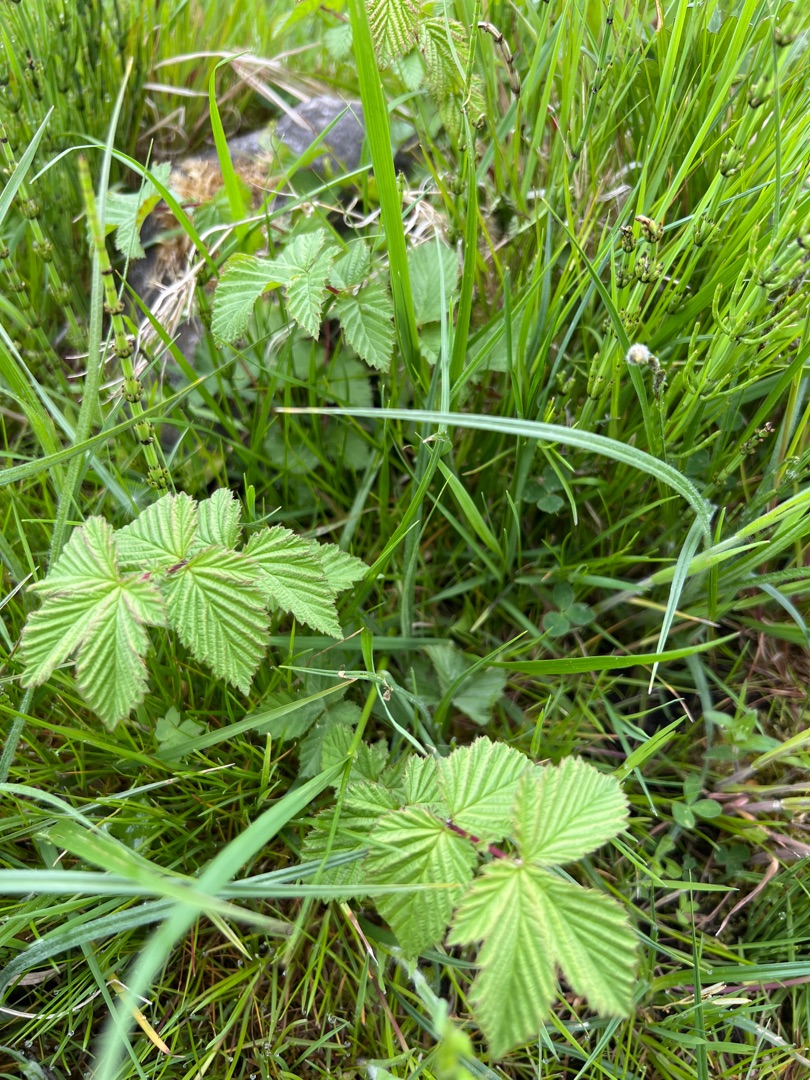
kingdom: Plantae
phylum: Tracheophyta
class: Magnoliopsida
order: Rosales
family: Rosaceae
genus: Filipendula
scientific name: Filipendula ulmaria
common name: Almindelig mjødurt
